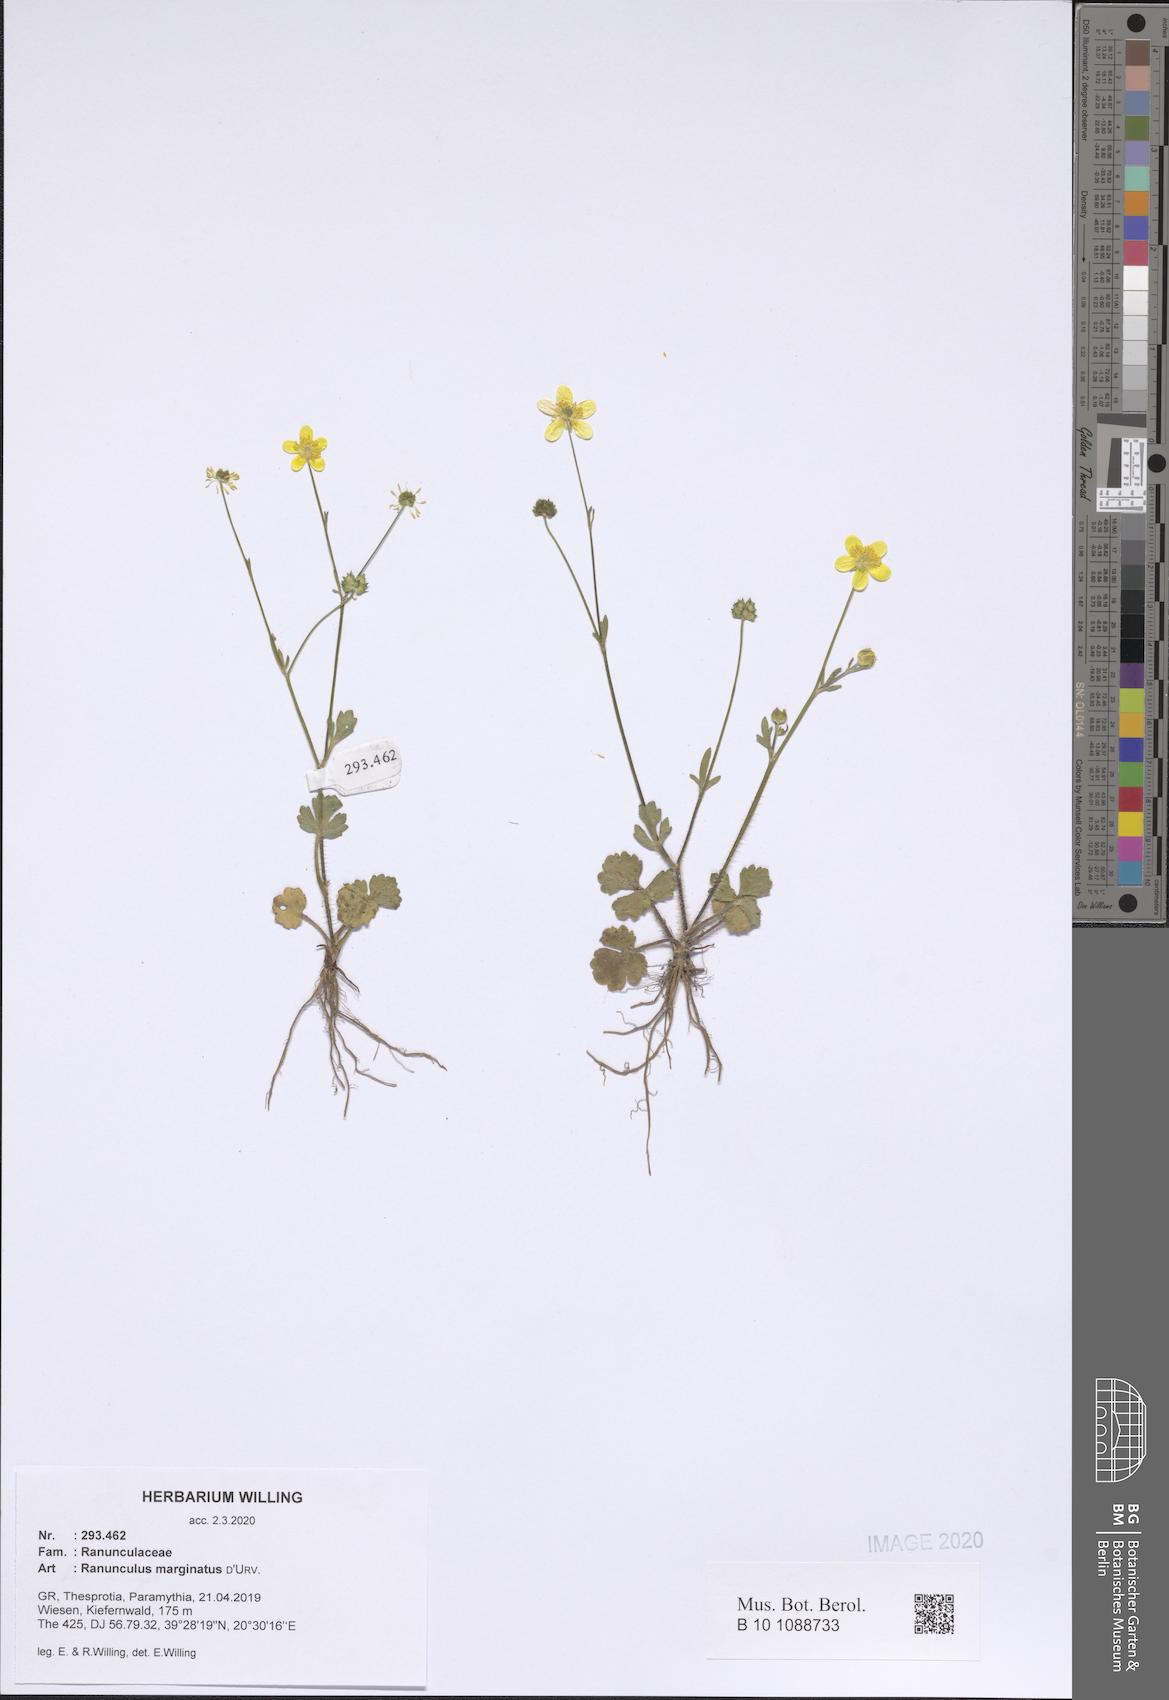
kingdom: Plantae
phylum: Tracheophyta
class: Magnoliopsida
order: Ranunculales
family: Ranunculaceae
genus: Ranunculus
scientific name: Ranunculus marginatus
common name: St. martin's buttercup
